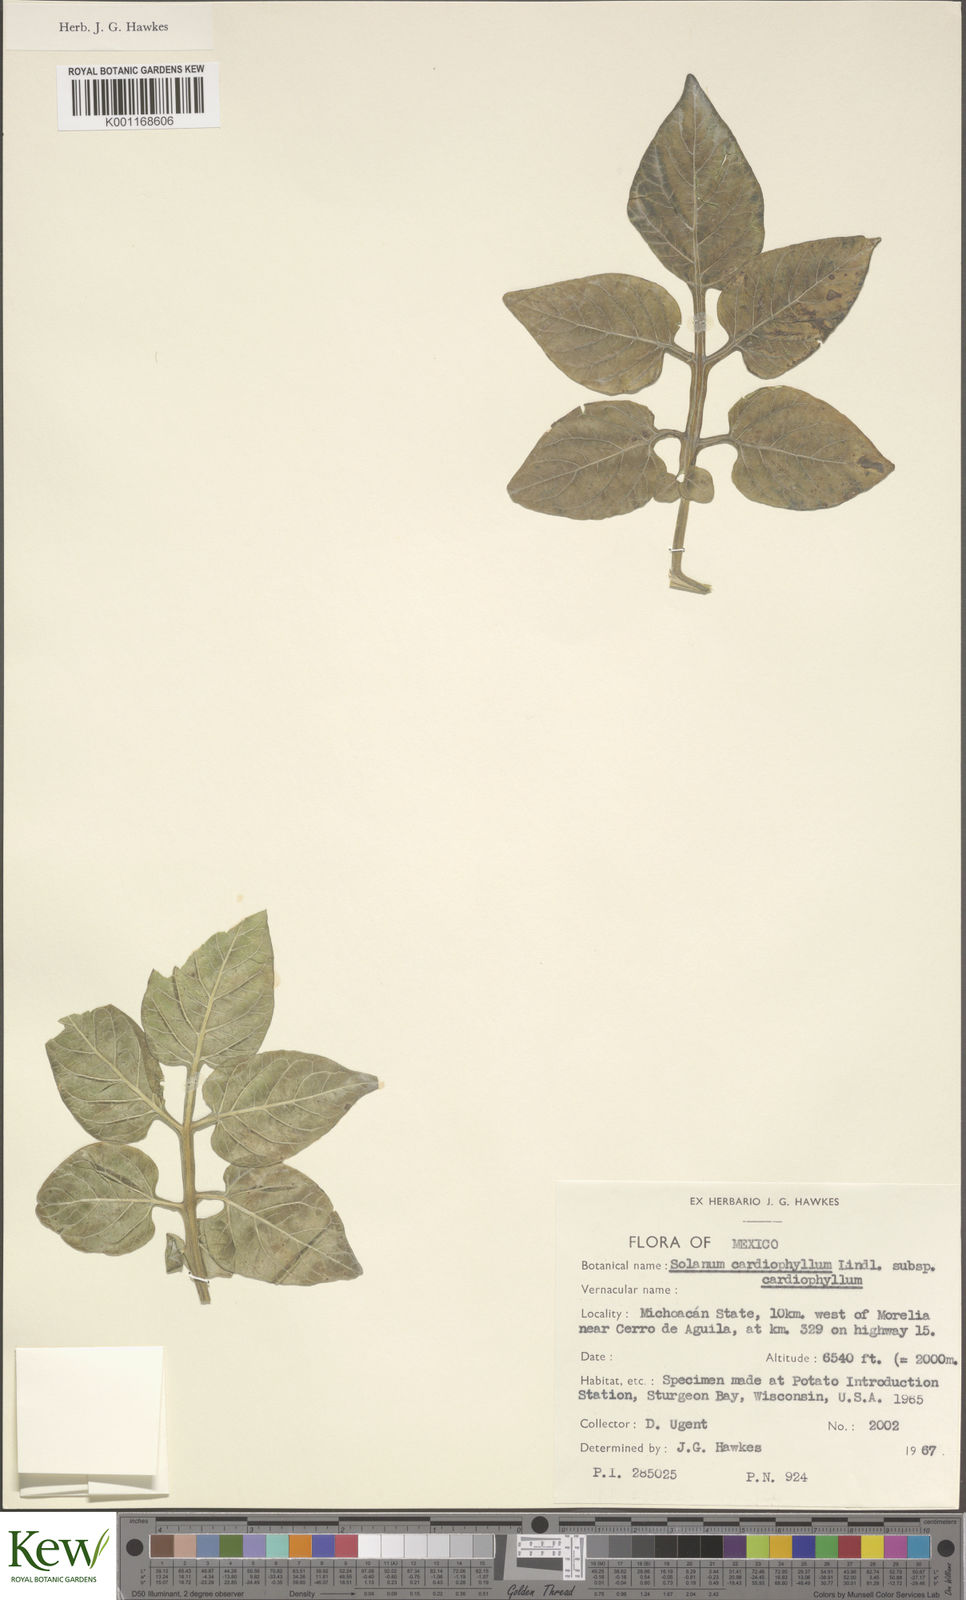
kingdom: Plantae
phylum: Tracheophyta
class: Magnoliopsida
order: Solanales
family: Solanaceae
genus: Solanum
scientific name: Solanum cardiophyllum
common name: Heartleaf horsenettle
